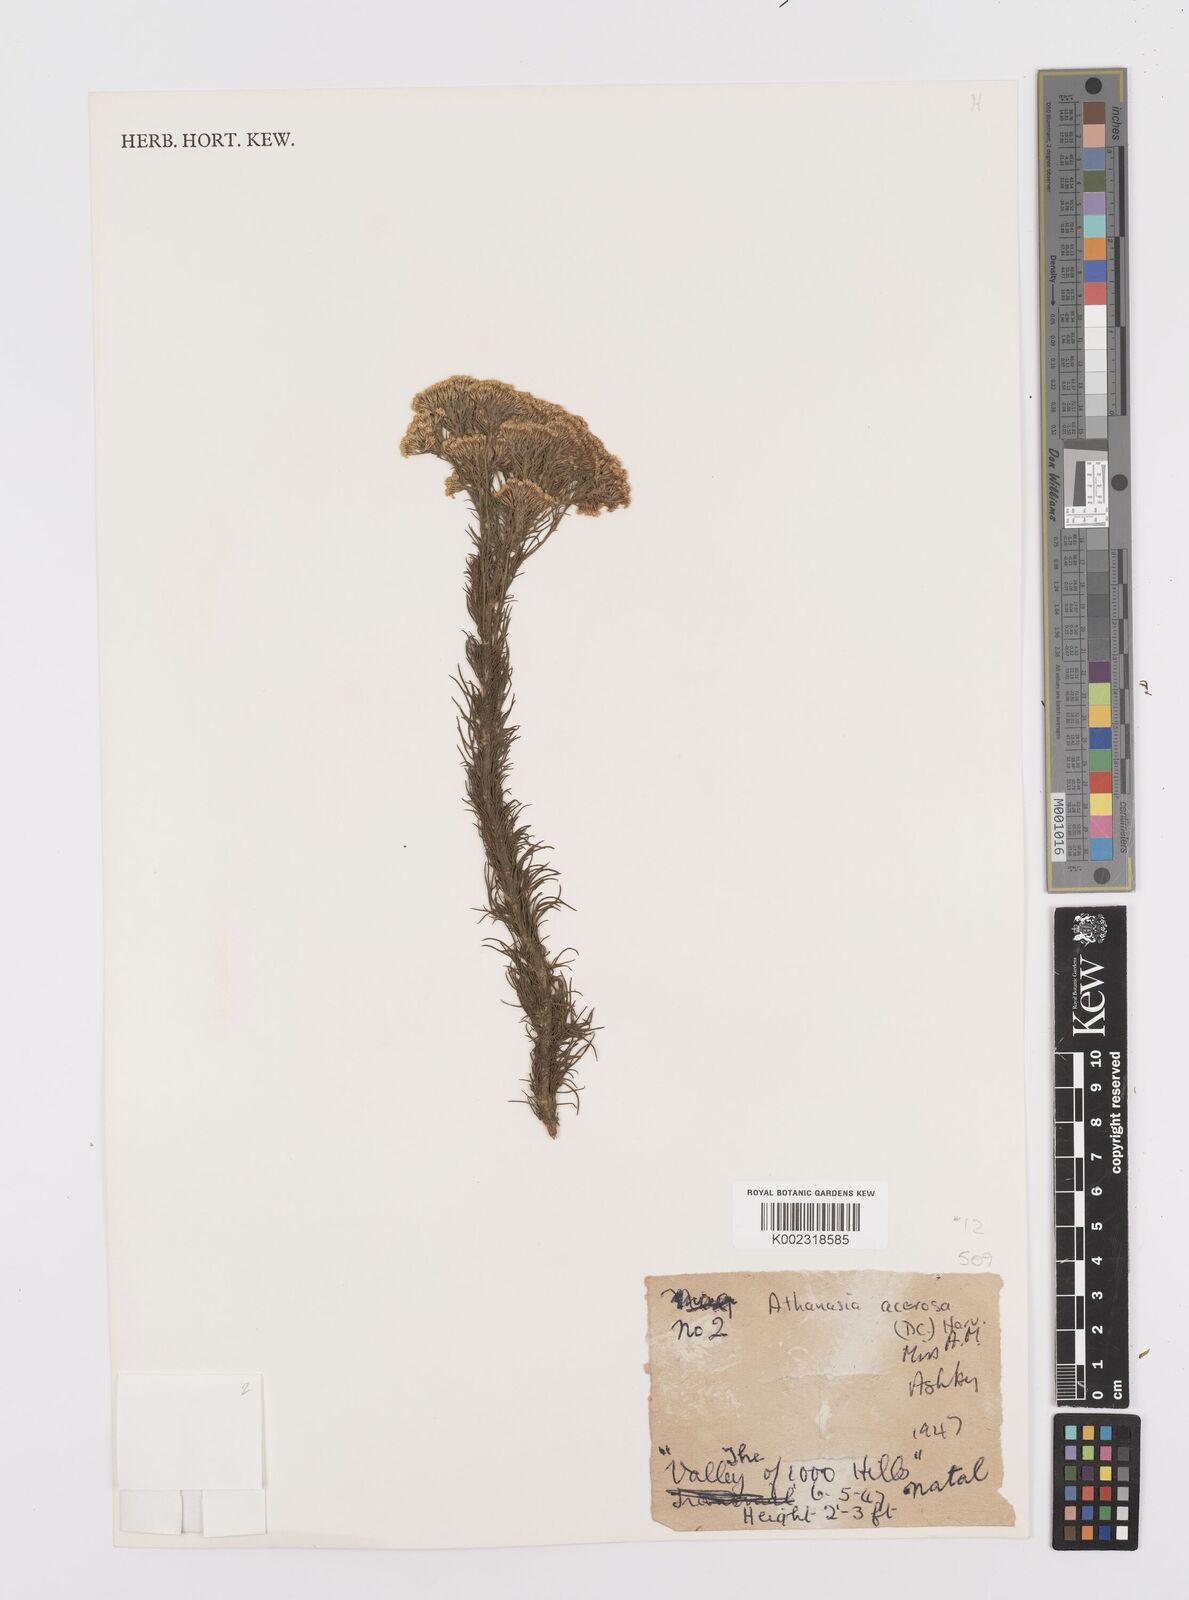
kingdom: Plantae
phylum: Tracheophyta
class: Magnoliopsida
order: Asterales
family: Asteraceae
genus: Phymaspermum
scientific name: Phymaspermum acerosum
